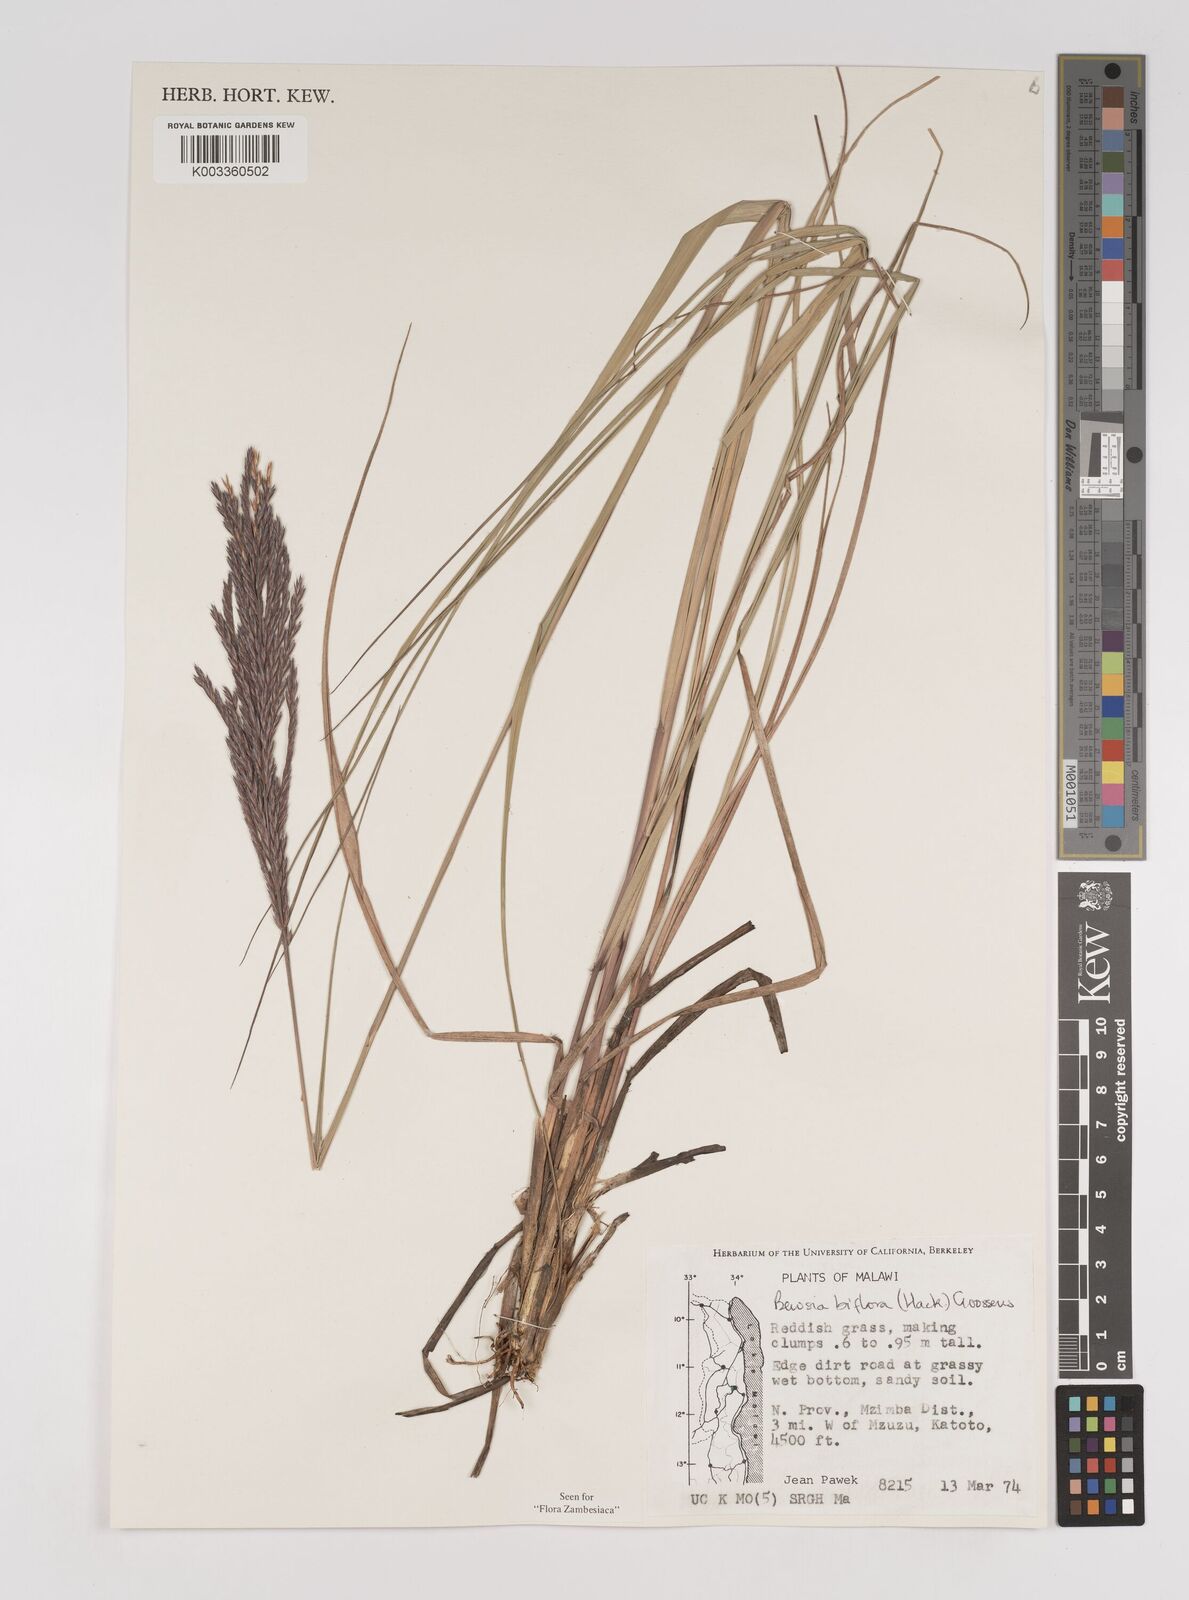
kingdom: Plantae
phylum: Tracheophyta
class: Liliopsida
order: Poales
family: Poaceae
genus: Bewsia
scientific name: Bewsia biflora
